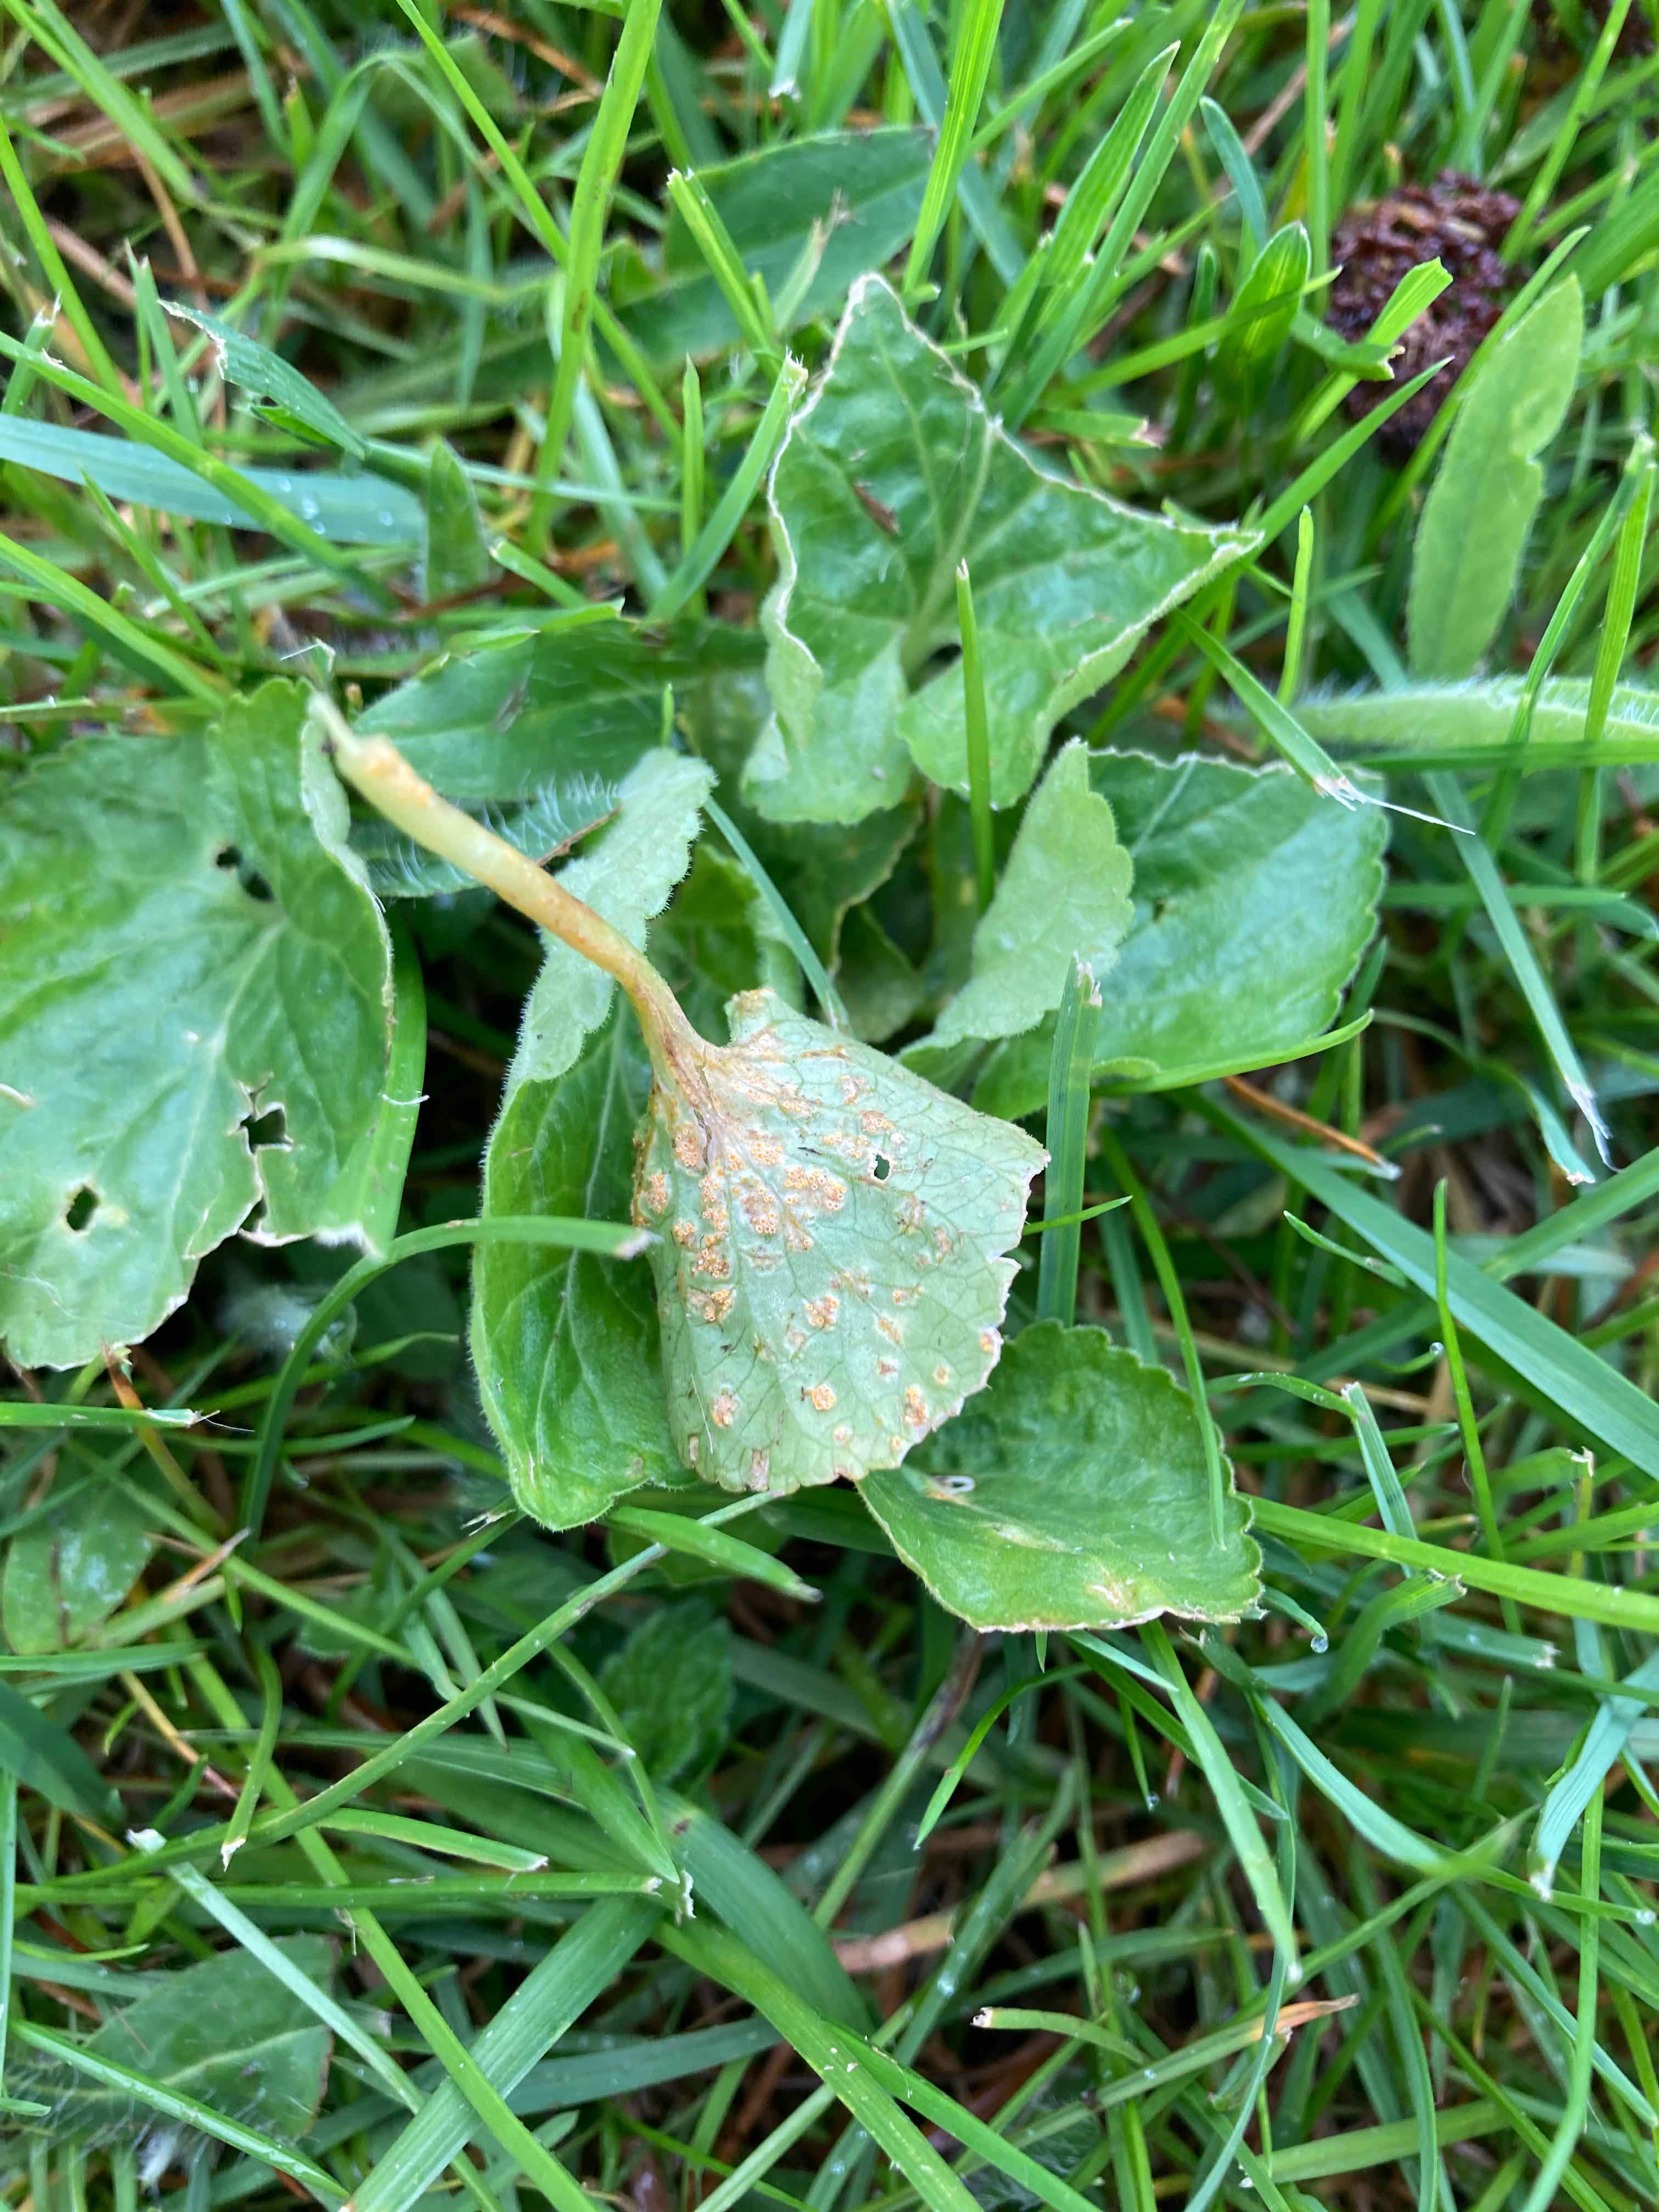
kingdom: Fungi
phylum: Basidiomycota
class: Pucciniomycetes
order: Pucciniales
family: Pucciniaceae
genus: Puccinia
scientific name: Puccinia violae
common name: viol-tvecellerust
